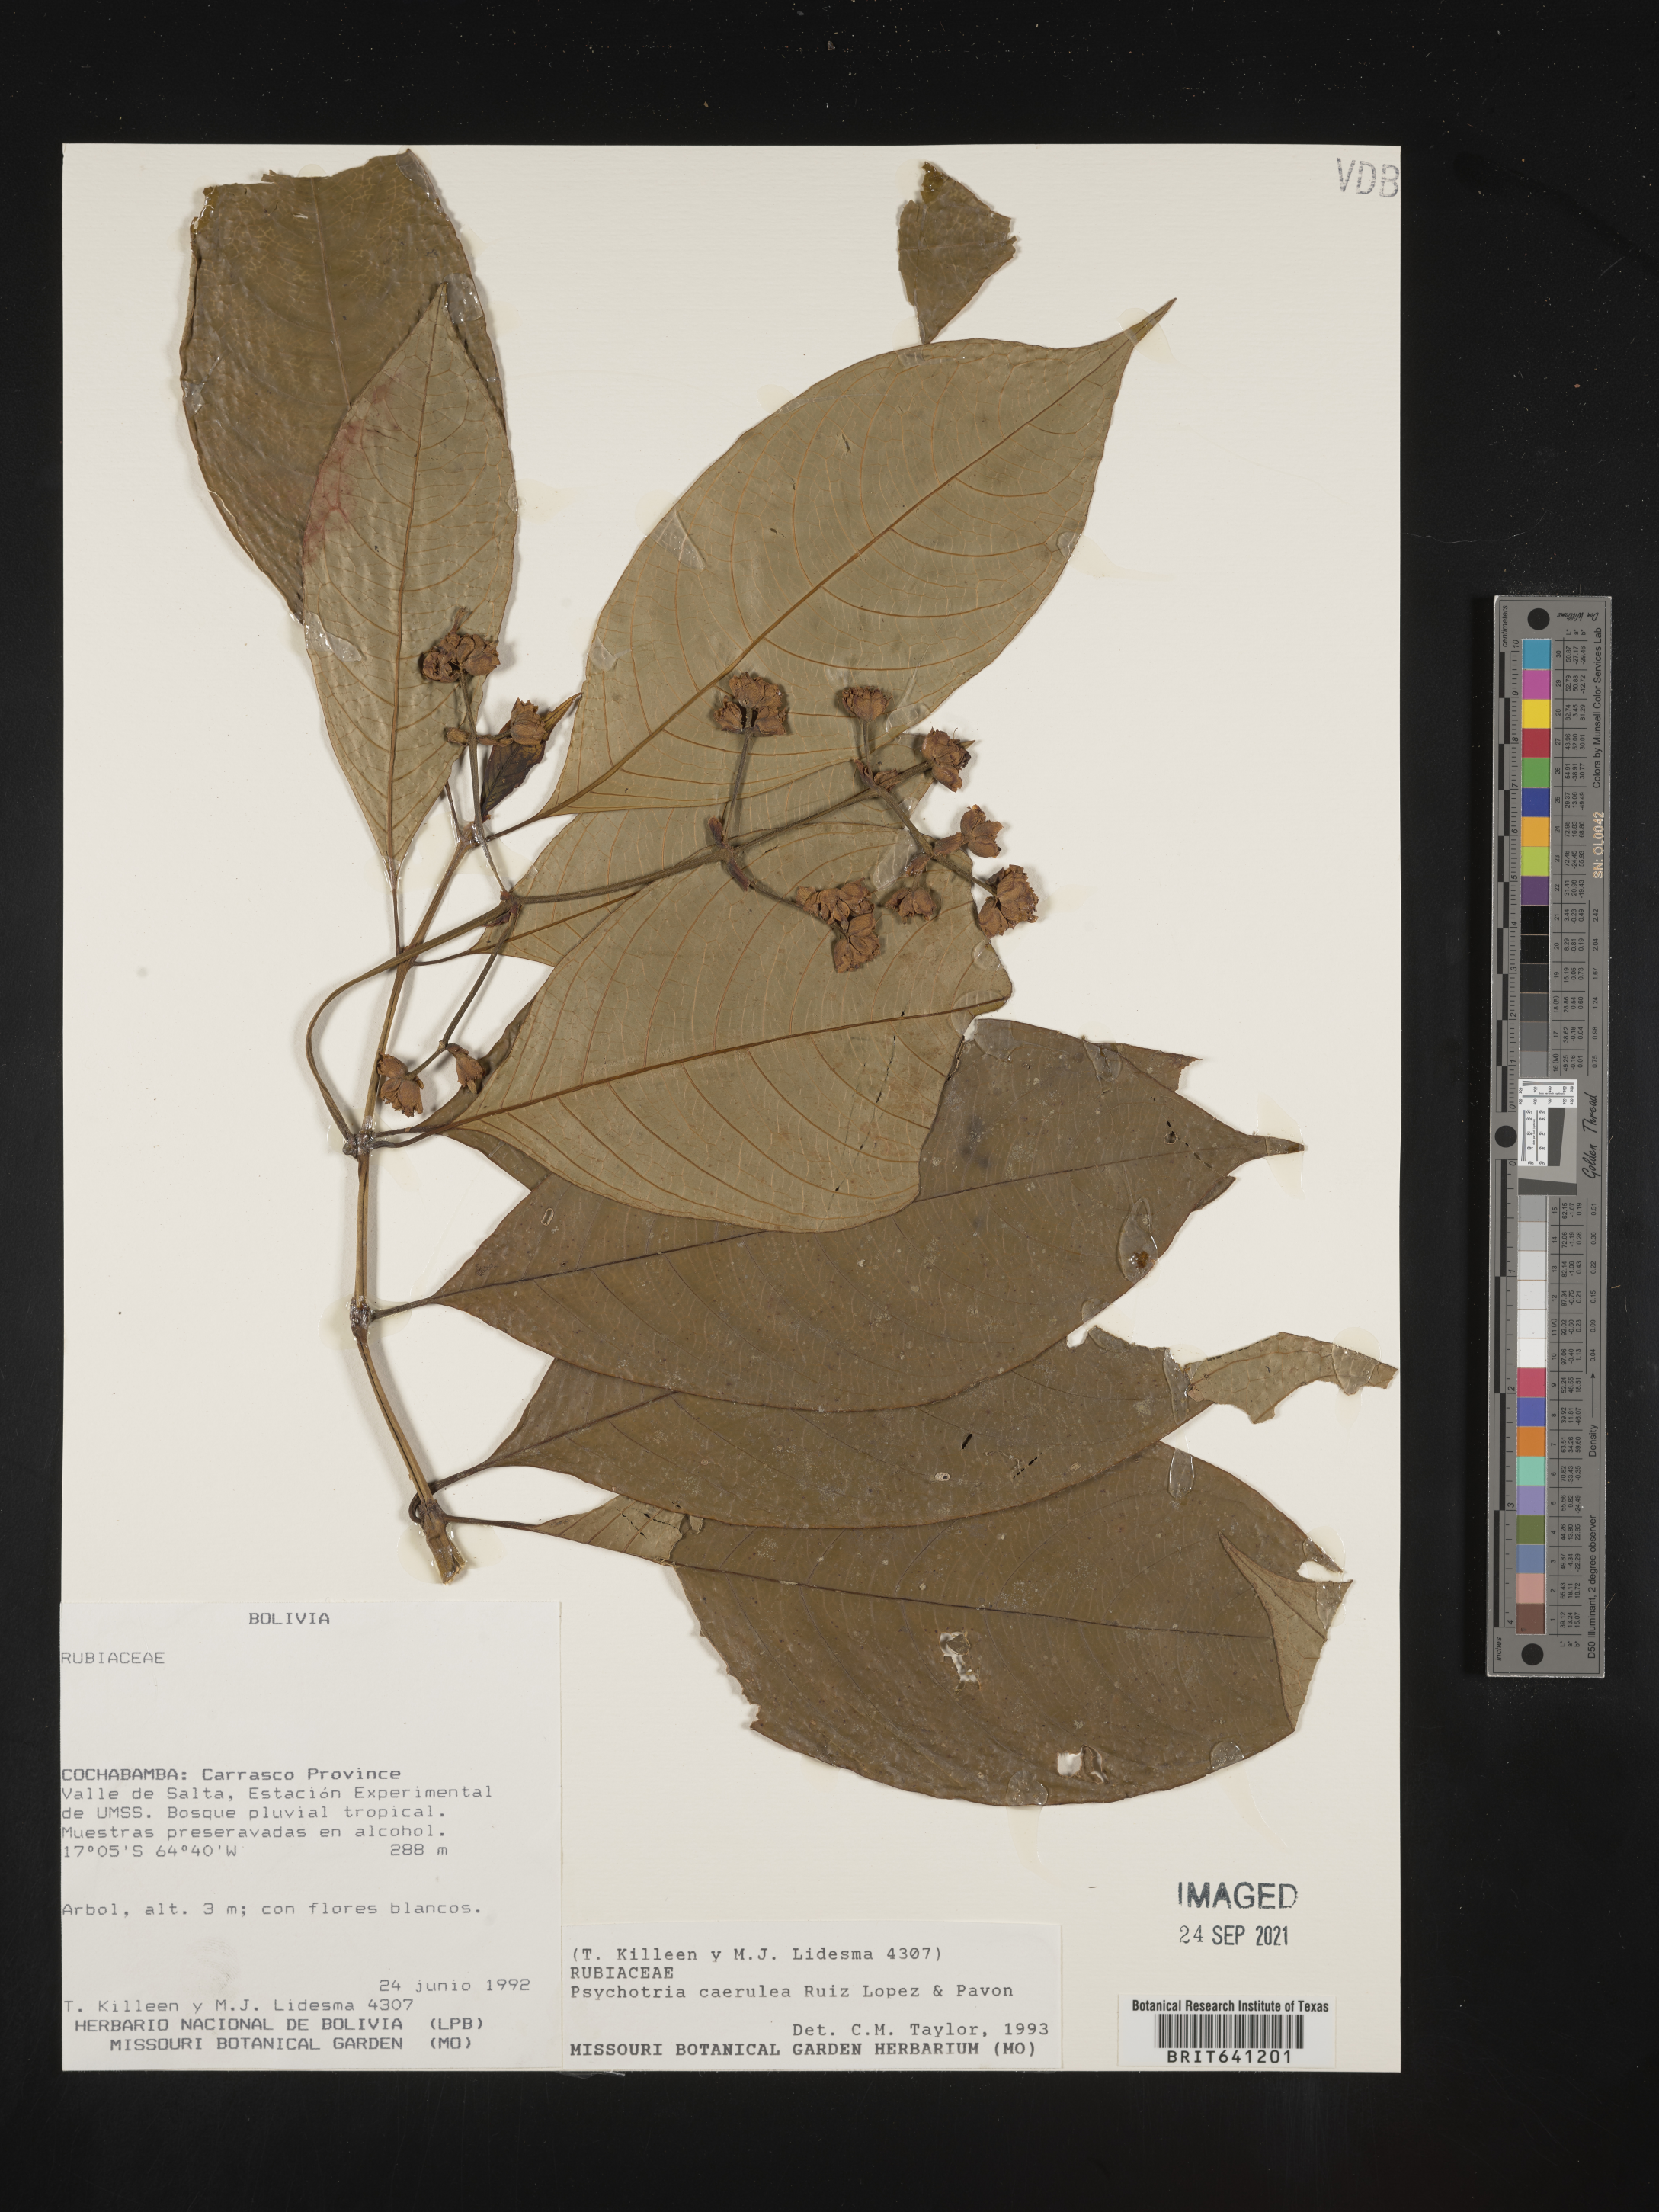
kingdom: Plantae
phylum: Tracheophyta
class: Magnoliopsida
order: Gentianales
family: Rubiaceae
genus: Psychotria
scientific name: Psychotria
